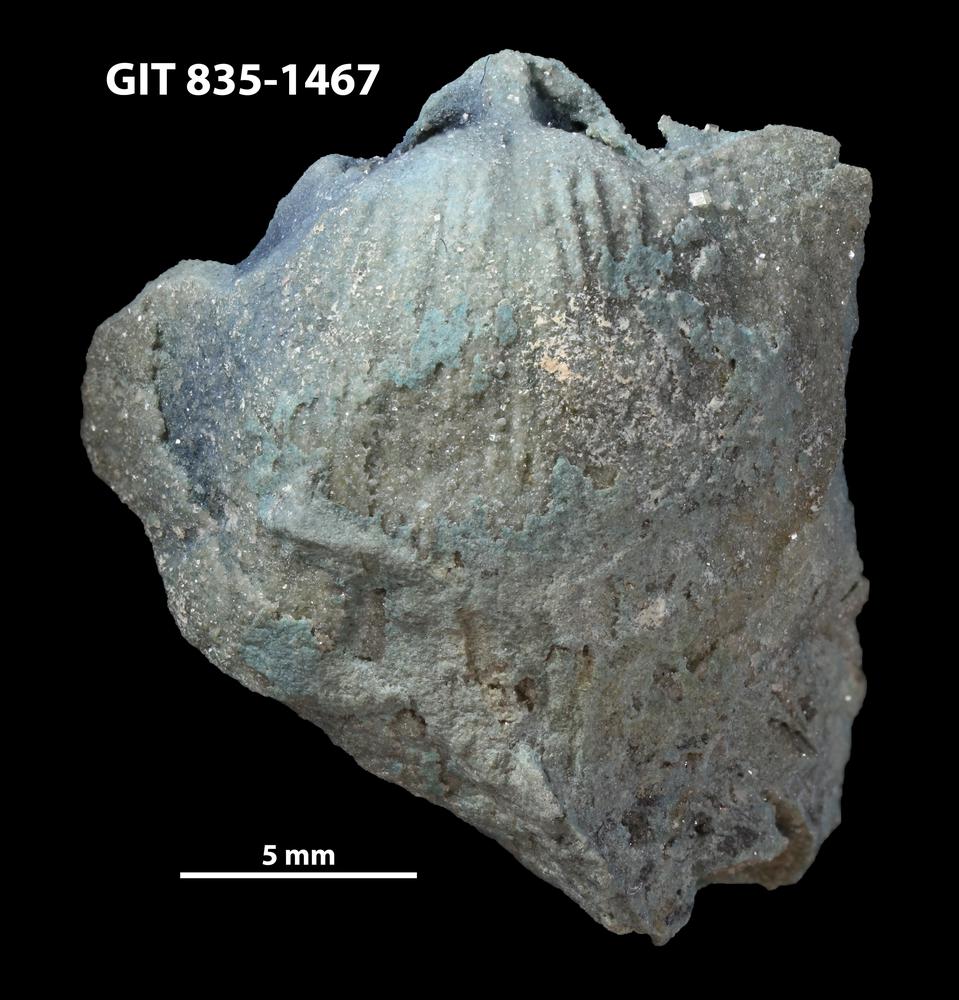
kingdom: Animalia
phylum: Brachiopoda
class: Rhynchonellata
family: Atrypidae
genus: Atrypa
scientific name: Atrypa
